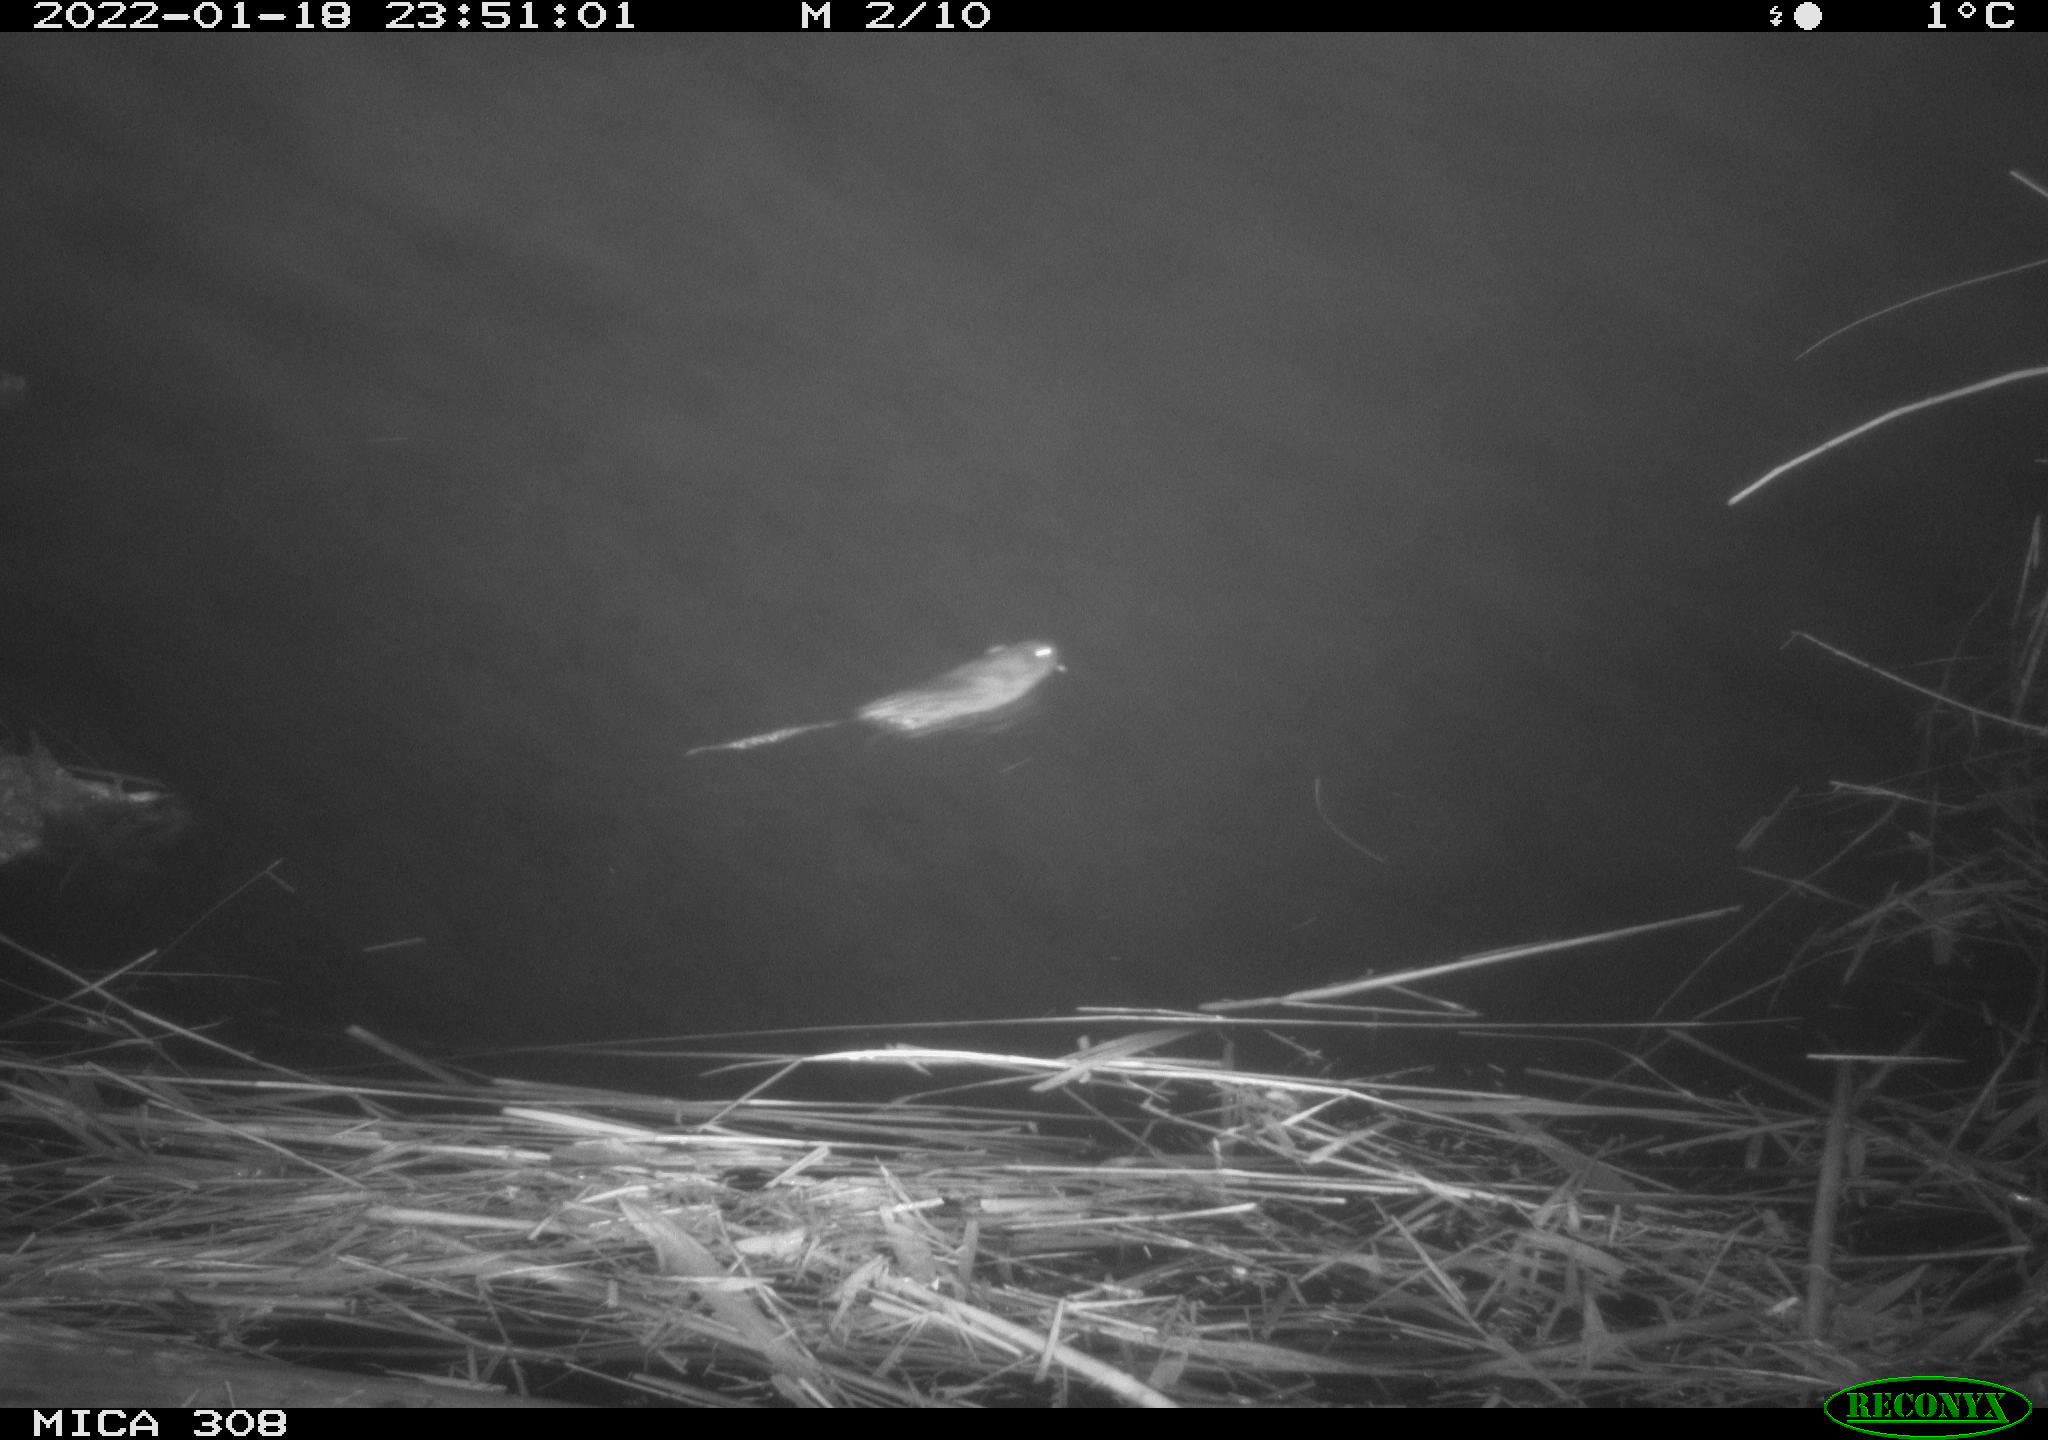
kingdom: Animalia
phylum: Chordata
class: Mammalia
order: Rodentia
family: Cricetidae
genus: Ondatra
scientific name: Ondatra zibethicus
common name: Muskrat
